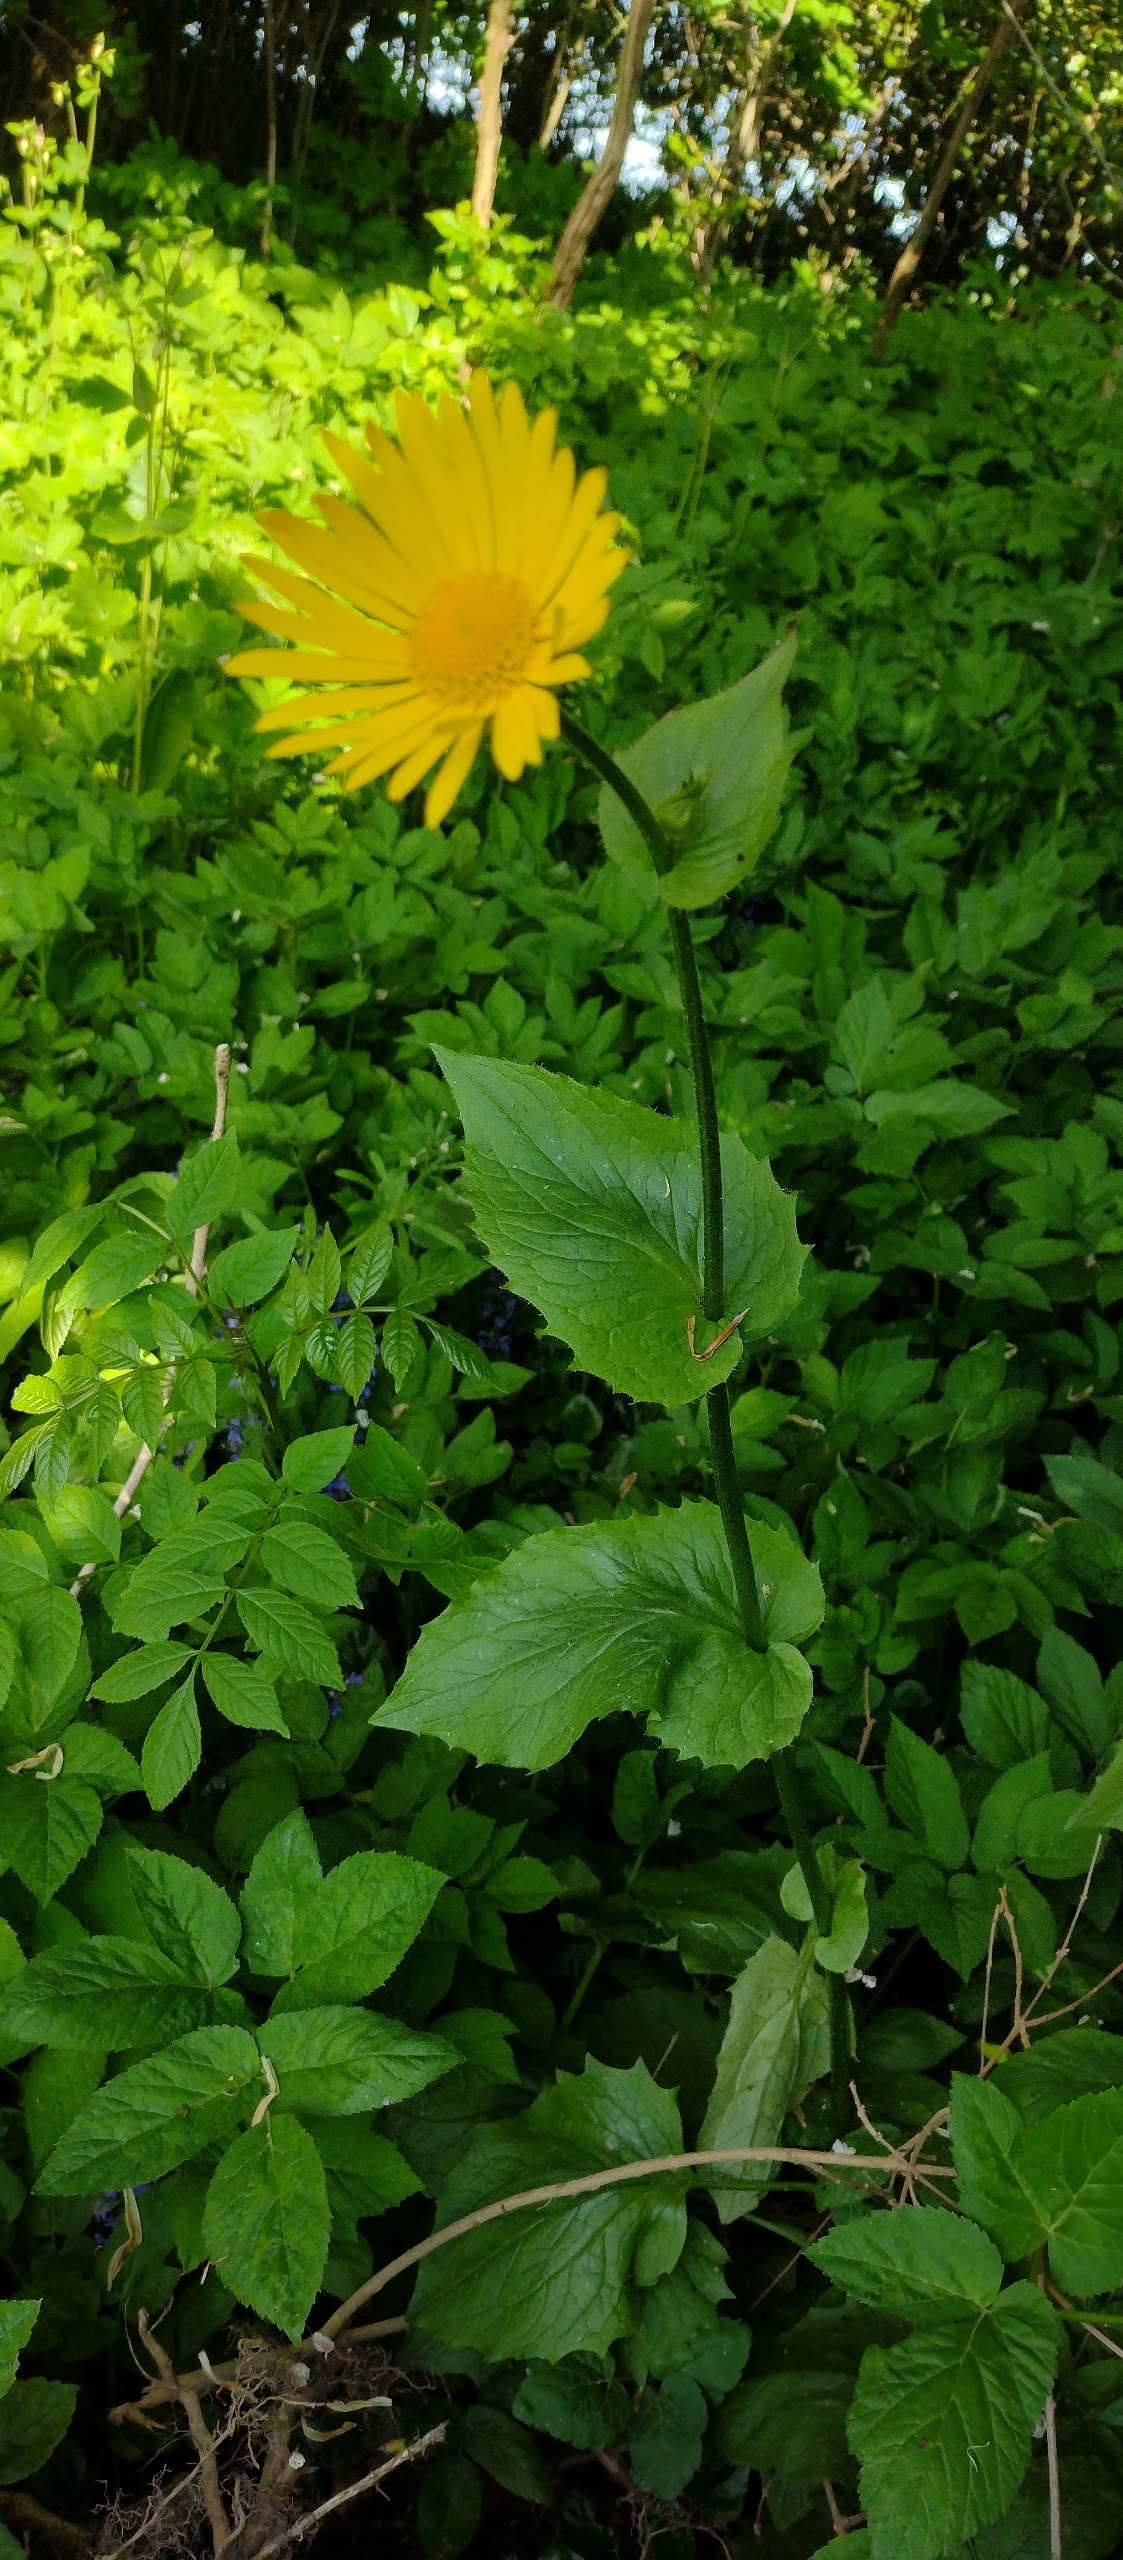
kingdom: Plantae
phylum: Tracheophyta
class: Magnoliopsida
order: Asterales
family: Asteraceae
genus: Doronicum
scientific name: Doronicum orientale
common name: Balkan-gemserod
